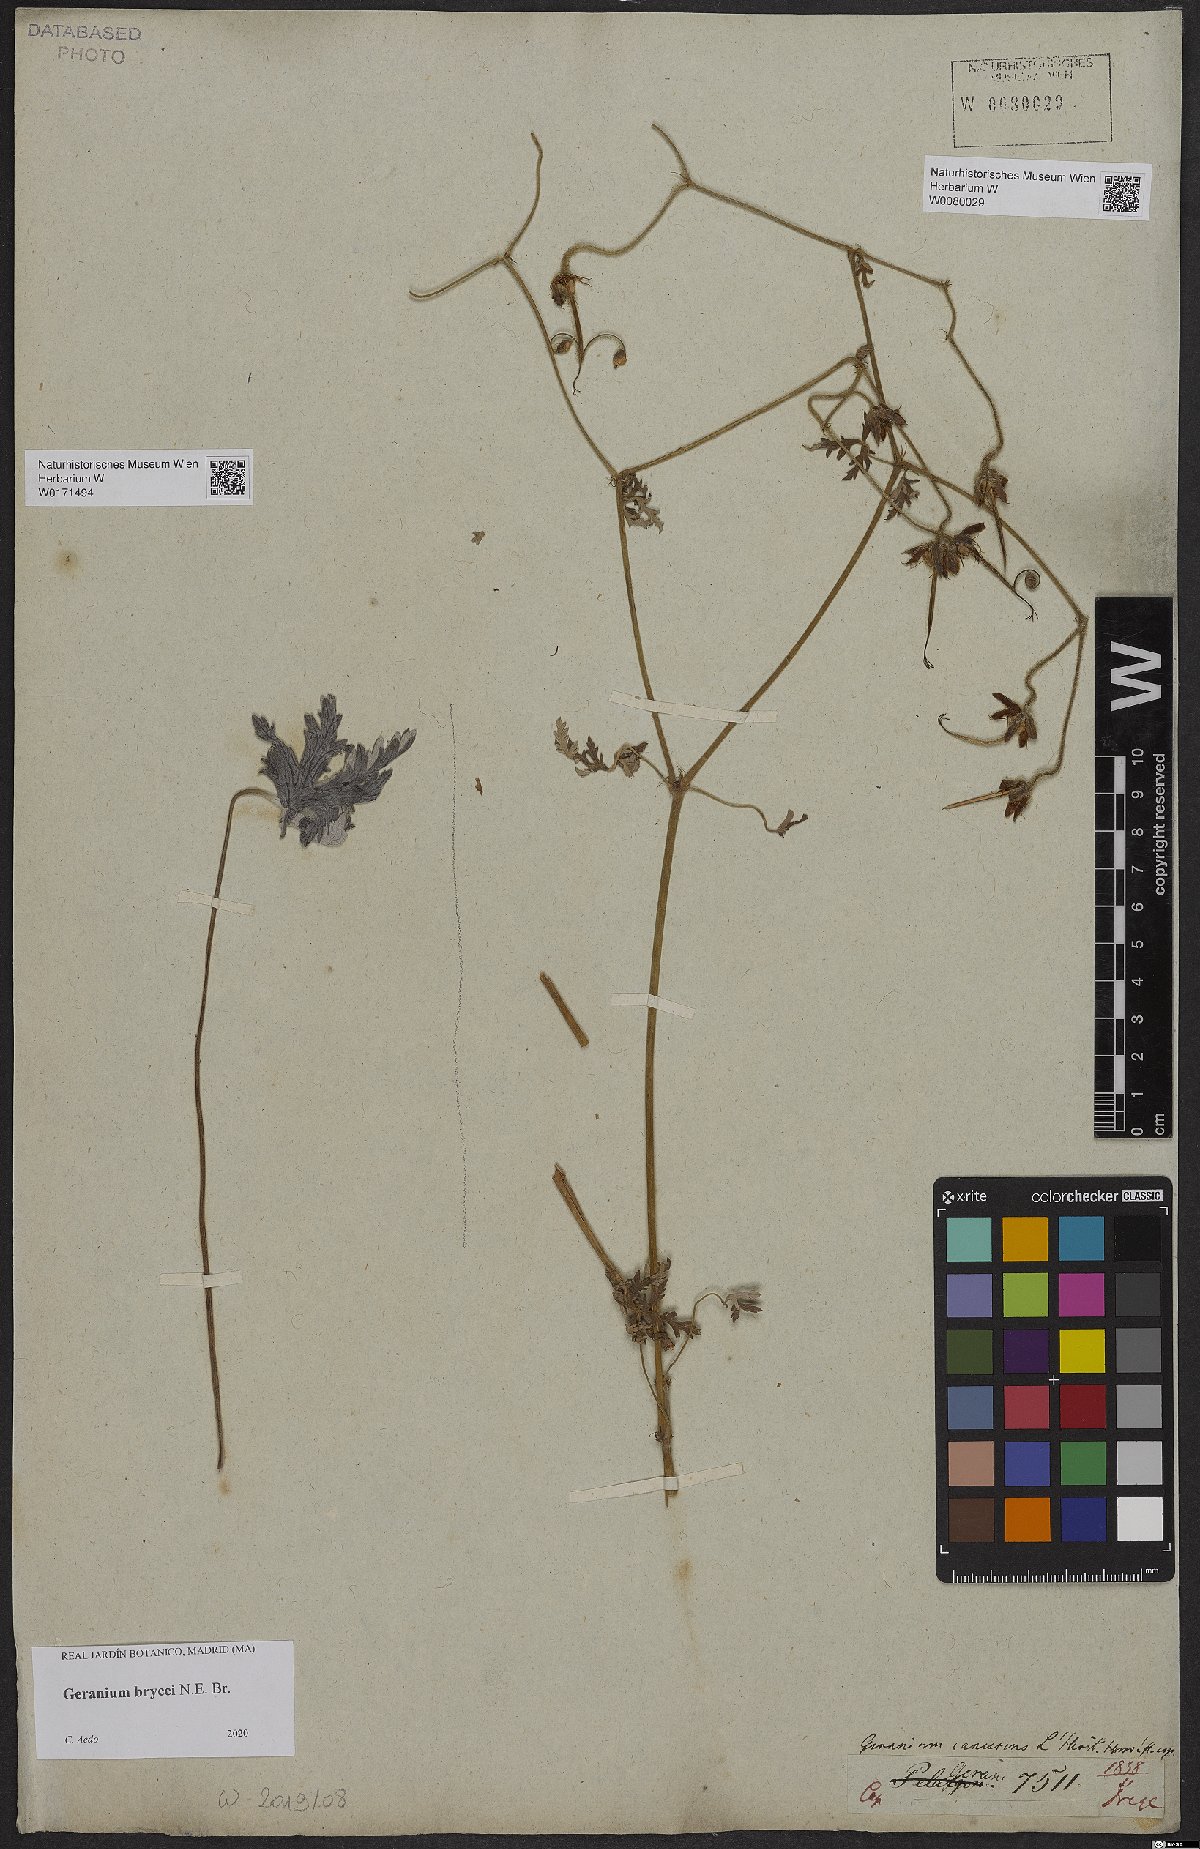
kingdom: Plantae
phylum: Tracheophyta
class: Magnoliopsida
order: Geraniales
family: Geraniaceae
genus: Geranium
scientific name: Geranium brycei
